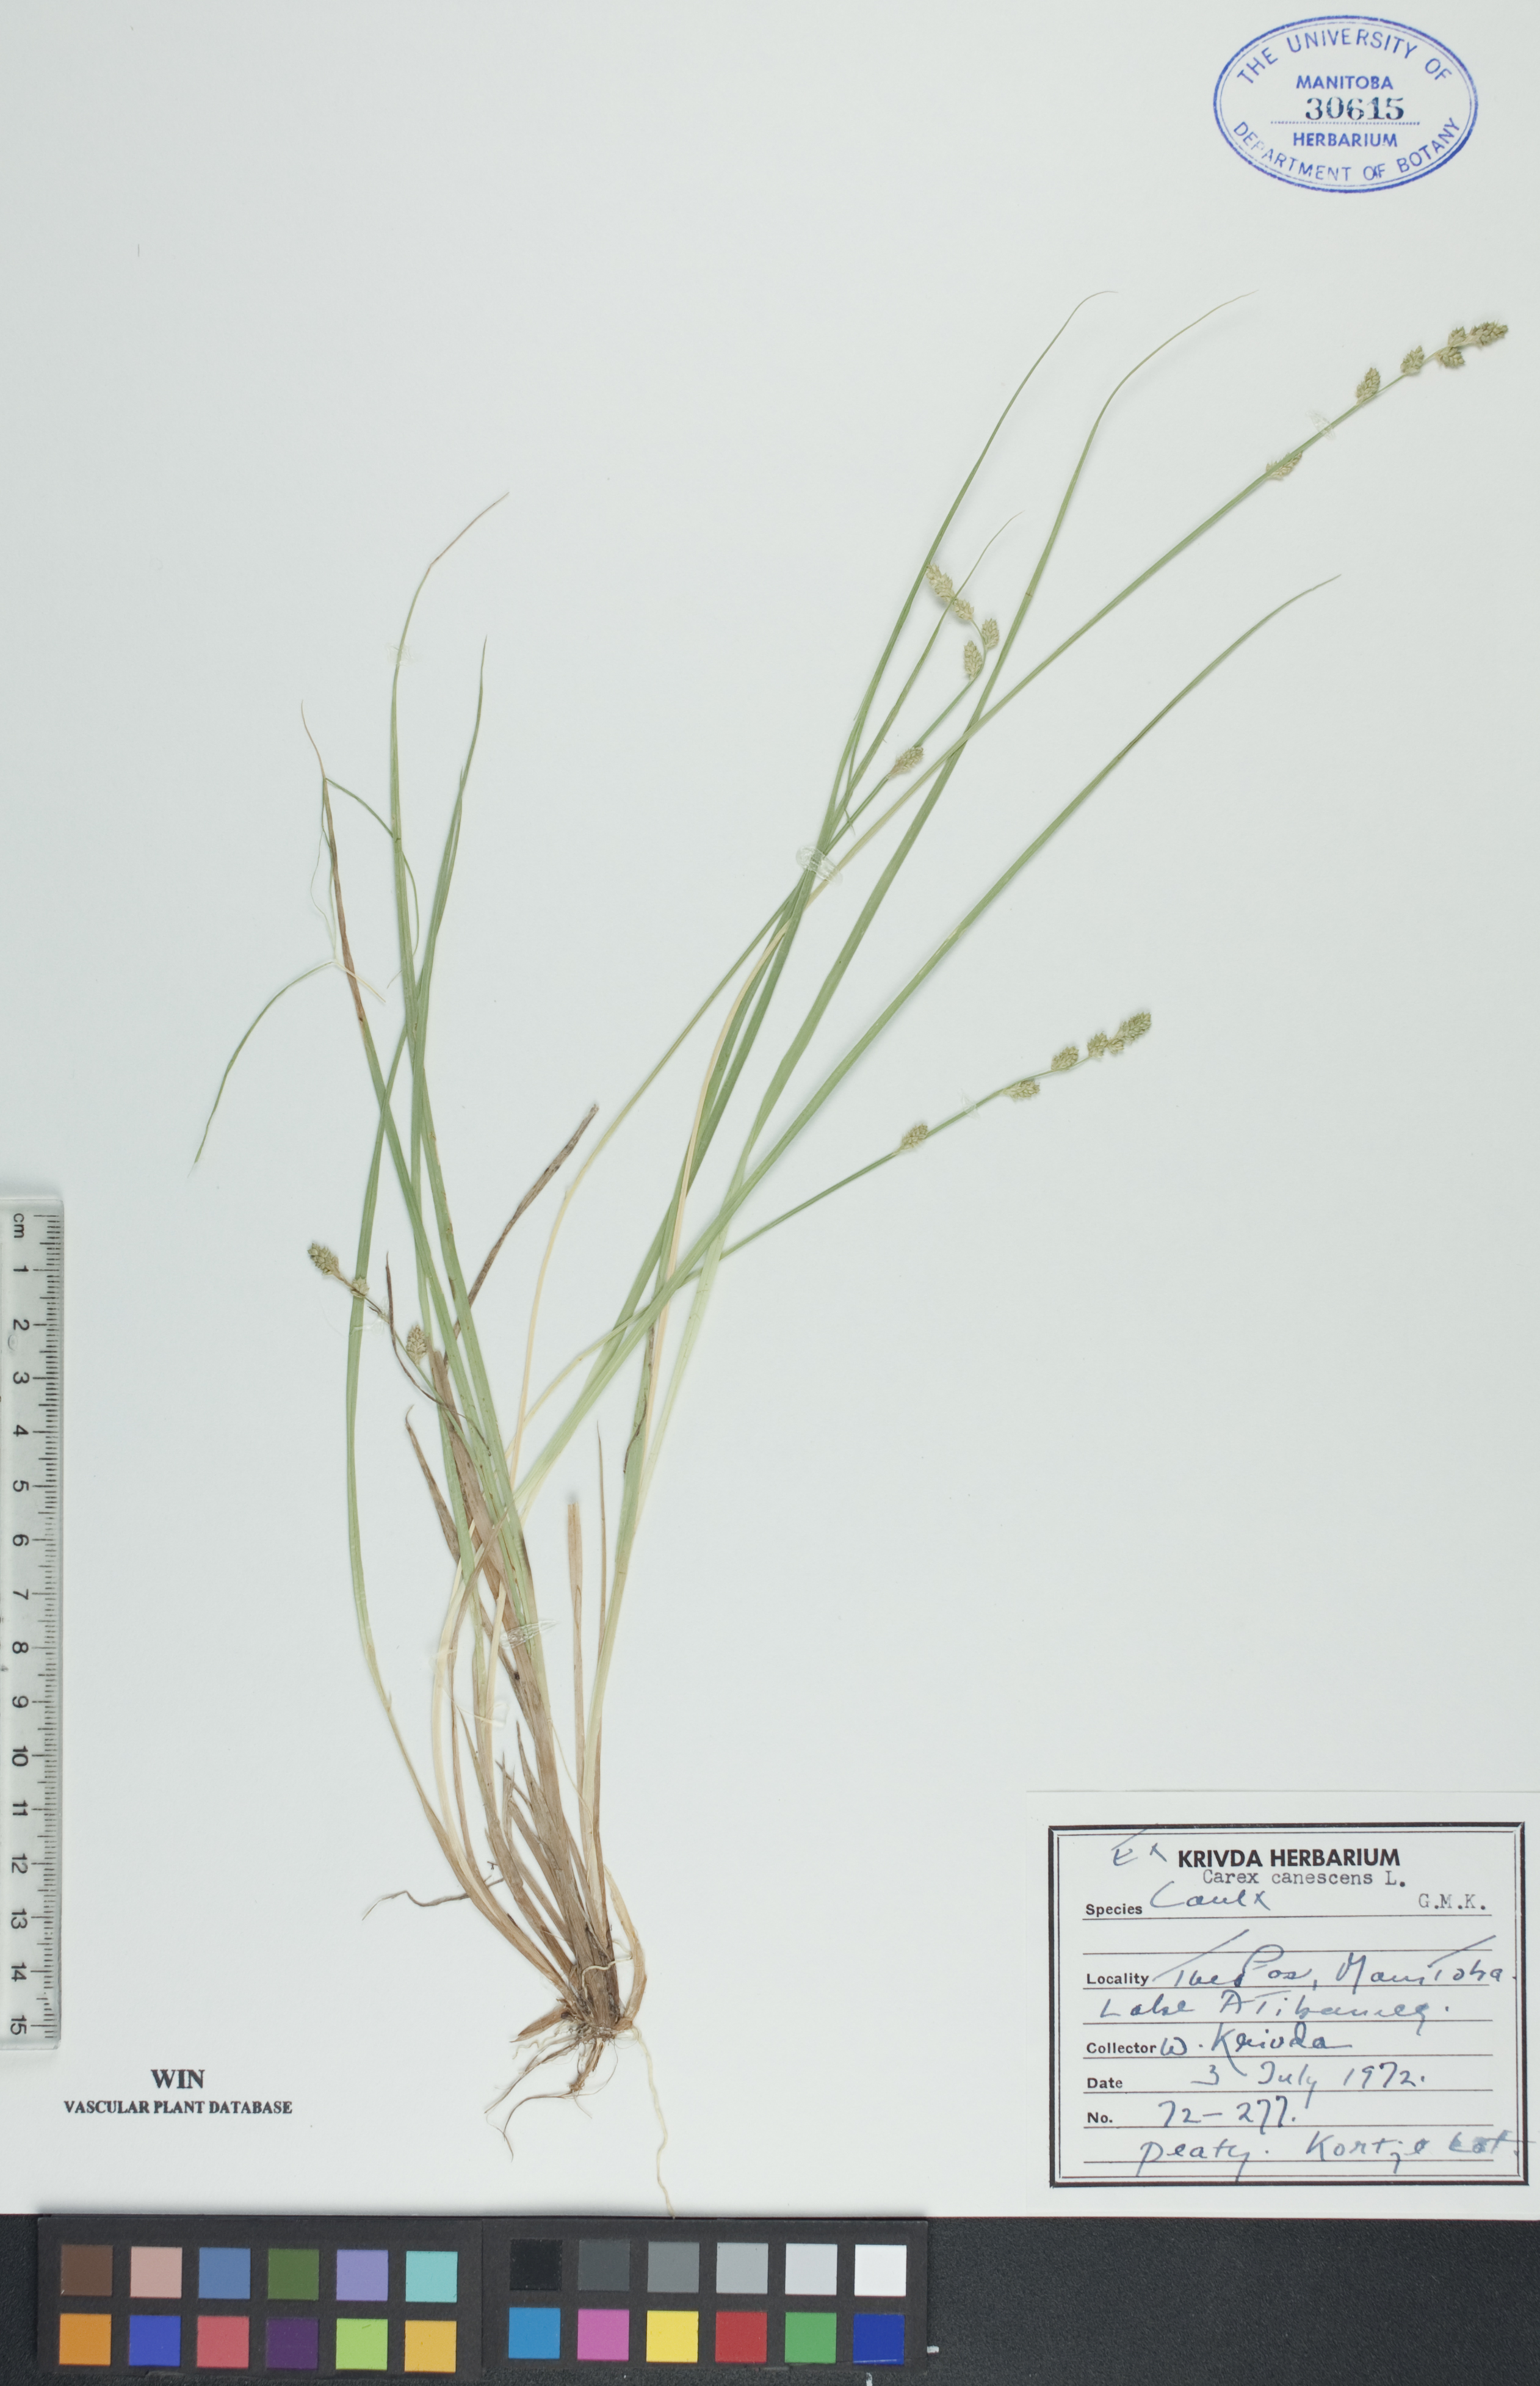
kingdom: Plantae
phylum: Tracheophyta
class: Liliopsida
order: Poales
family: Cyperaceae
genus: Carex
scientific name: Carex canescens
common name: White sedge
